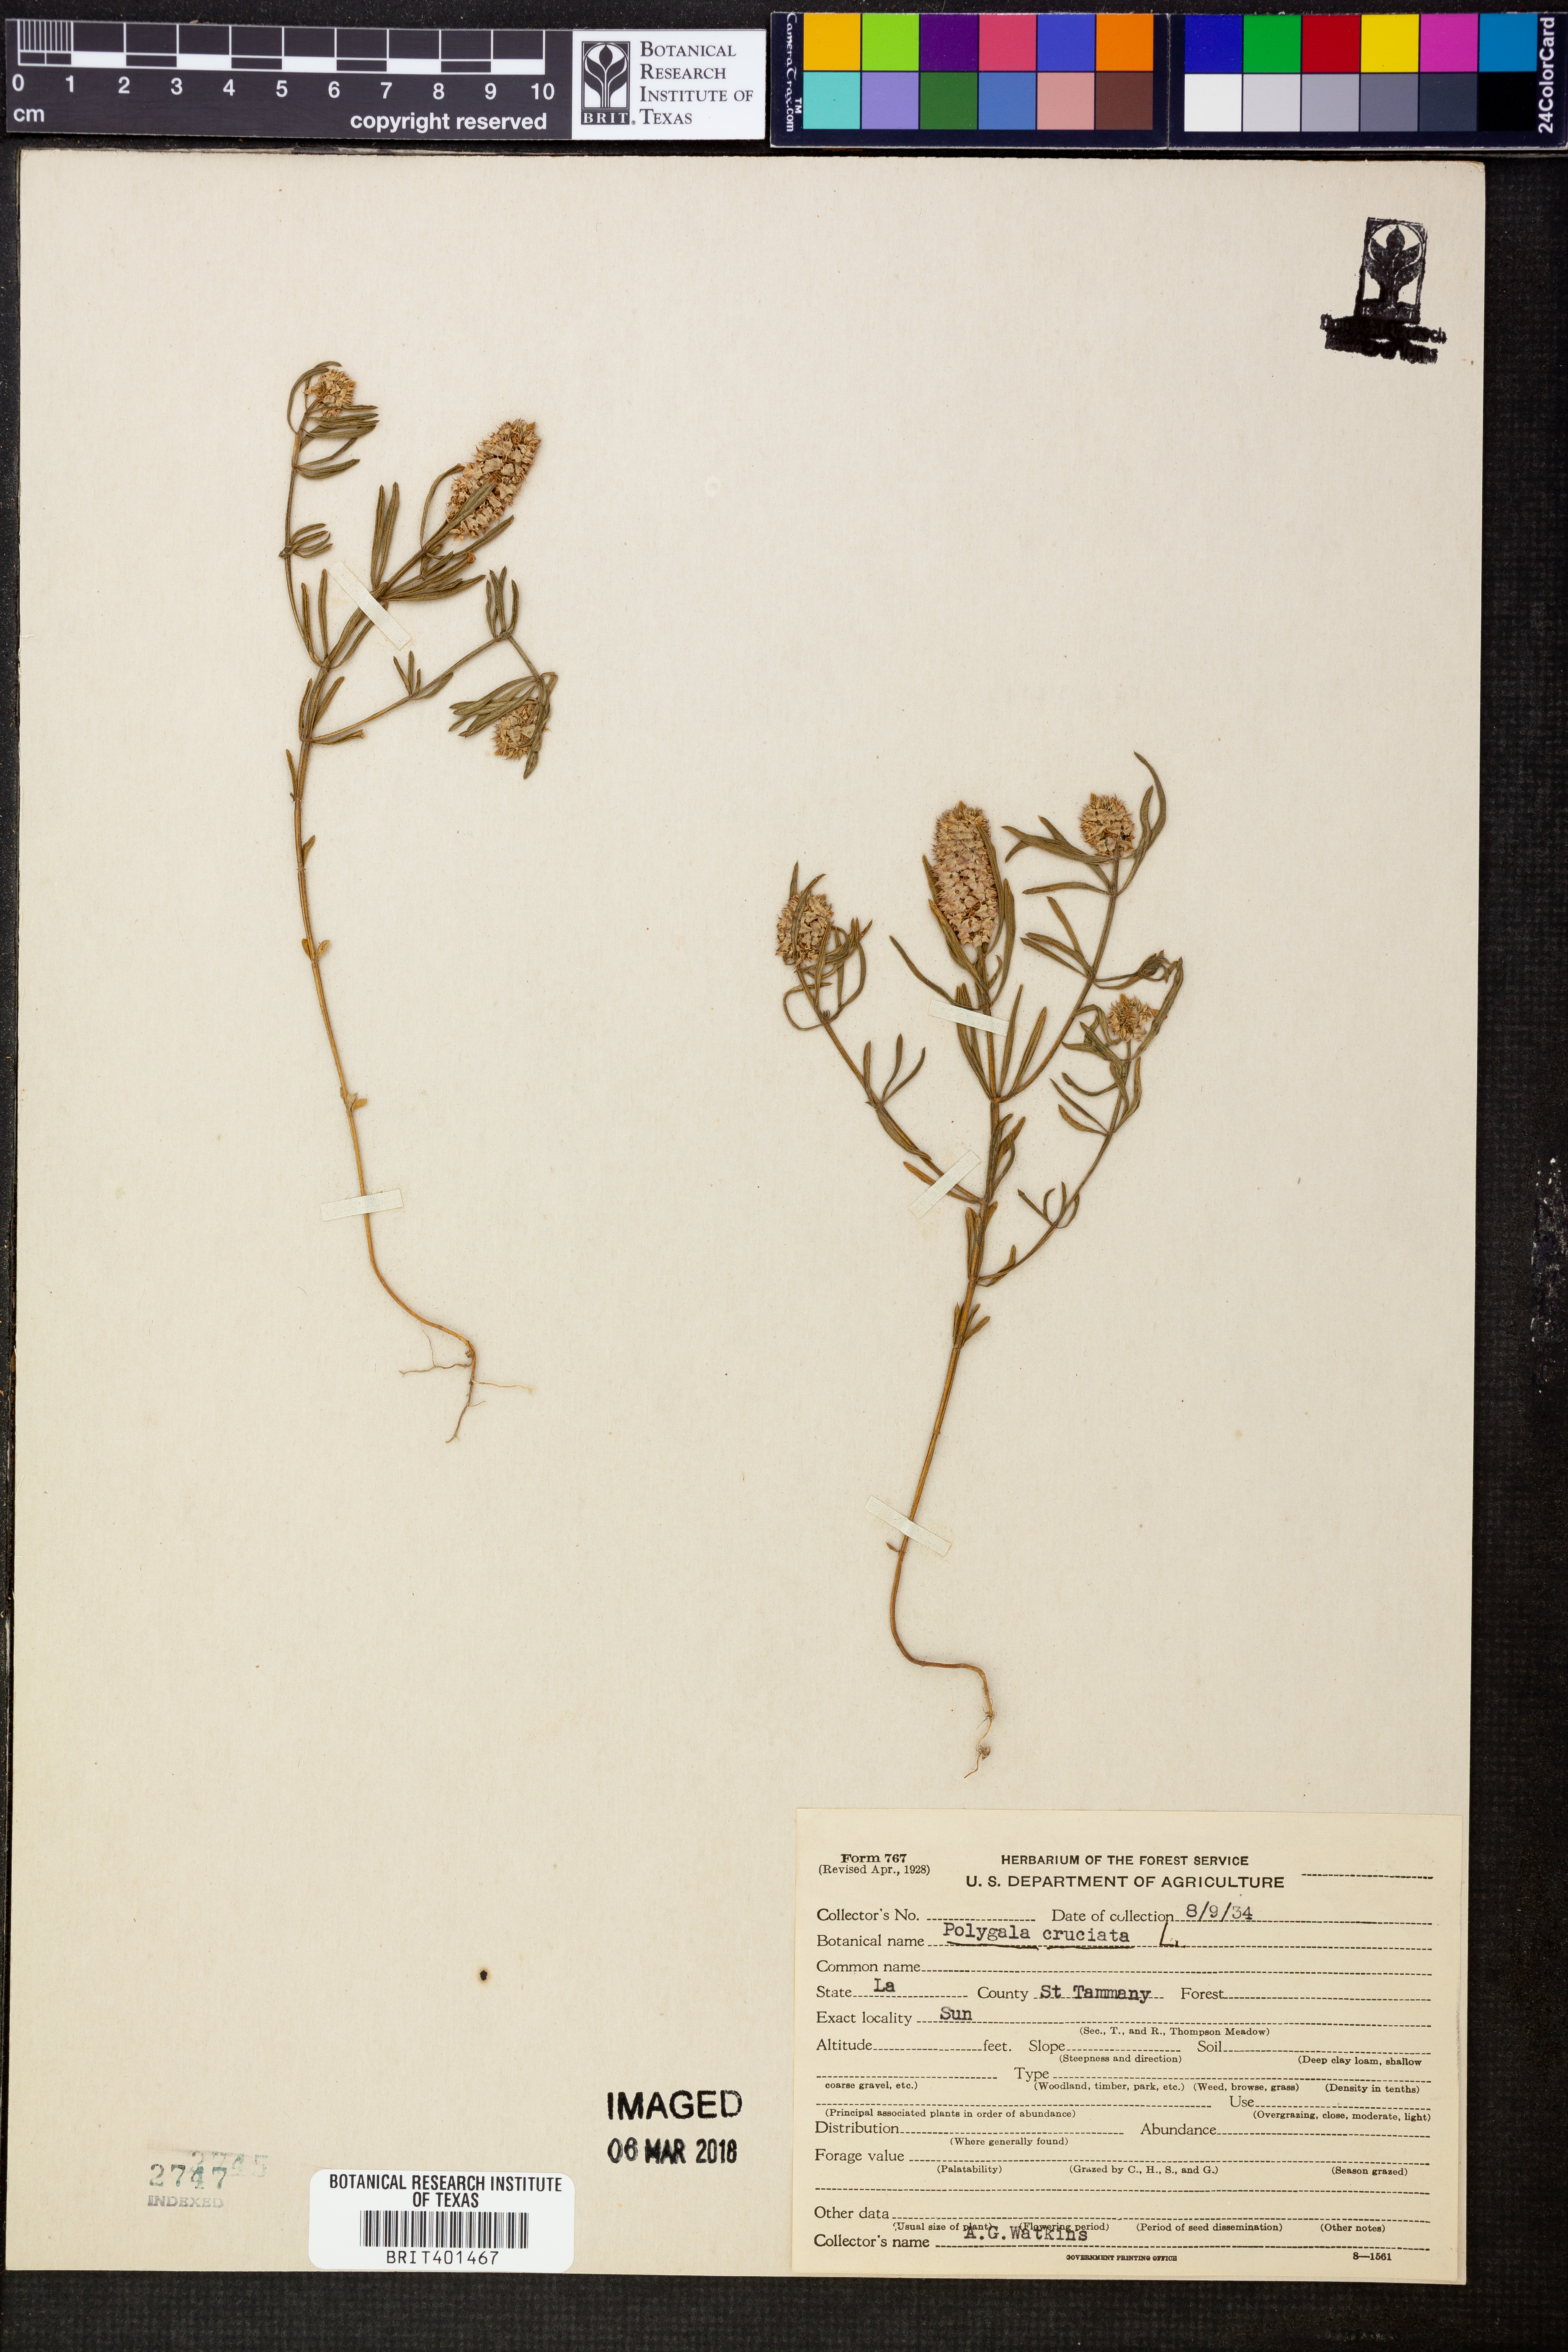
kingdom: Plantae
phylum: Tracheophyta
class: Magnoliopsida
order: Fabales
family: Polygalaceae
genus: Polygala
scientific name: Polygala cruciata
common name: Drumheads
